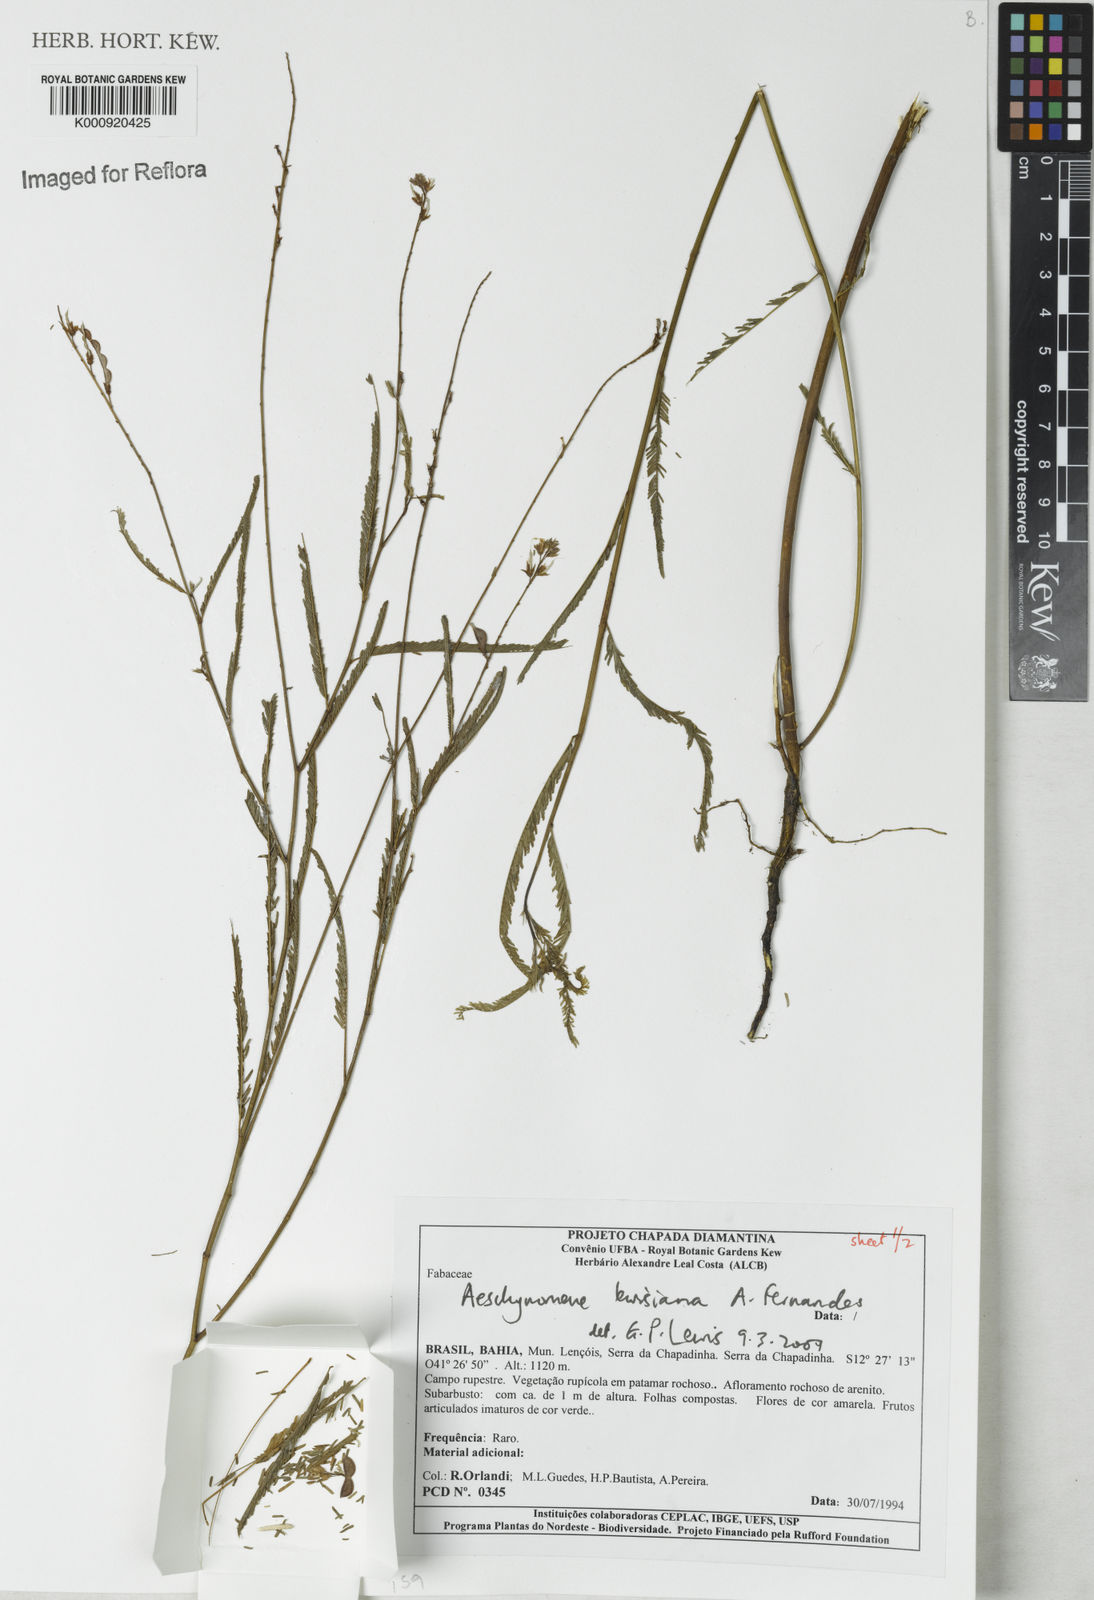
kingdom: Plantae
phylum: Tracheophyta
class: Magnoliopsida
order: Fabales
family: Fabaceae
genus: Ctenodon
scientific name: Ctenodon lewisianus
